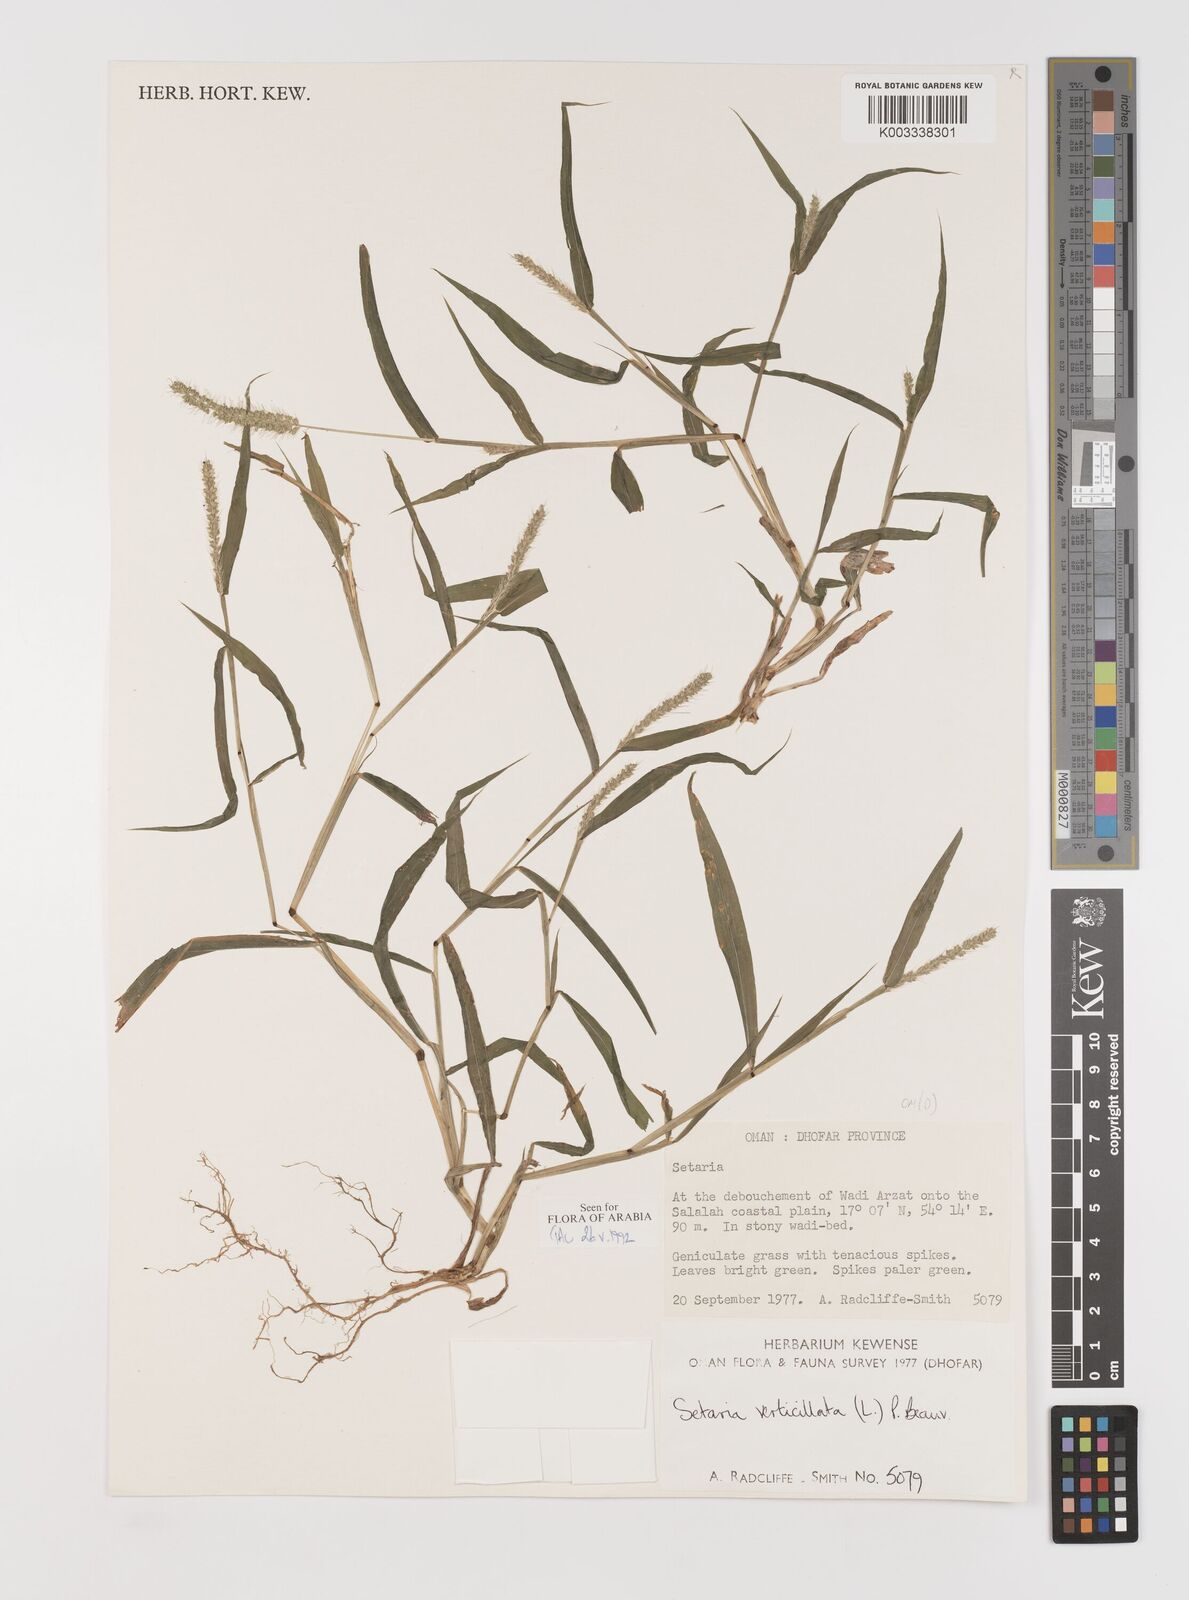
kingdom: Plantae
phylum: Tracheophyta
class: Liliopsida
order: Poales
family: Poaceae
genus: Setaria
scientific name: Setaria verticillata
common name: Hooked bristlegrass
